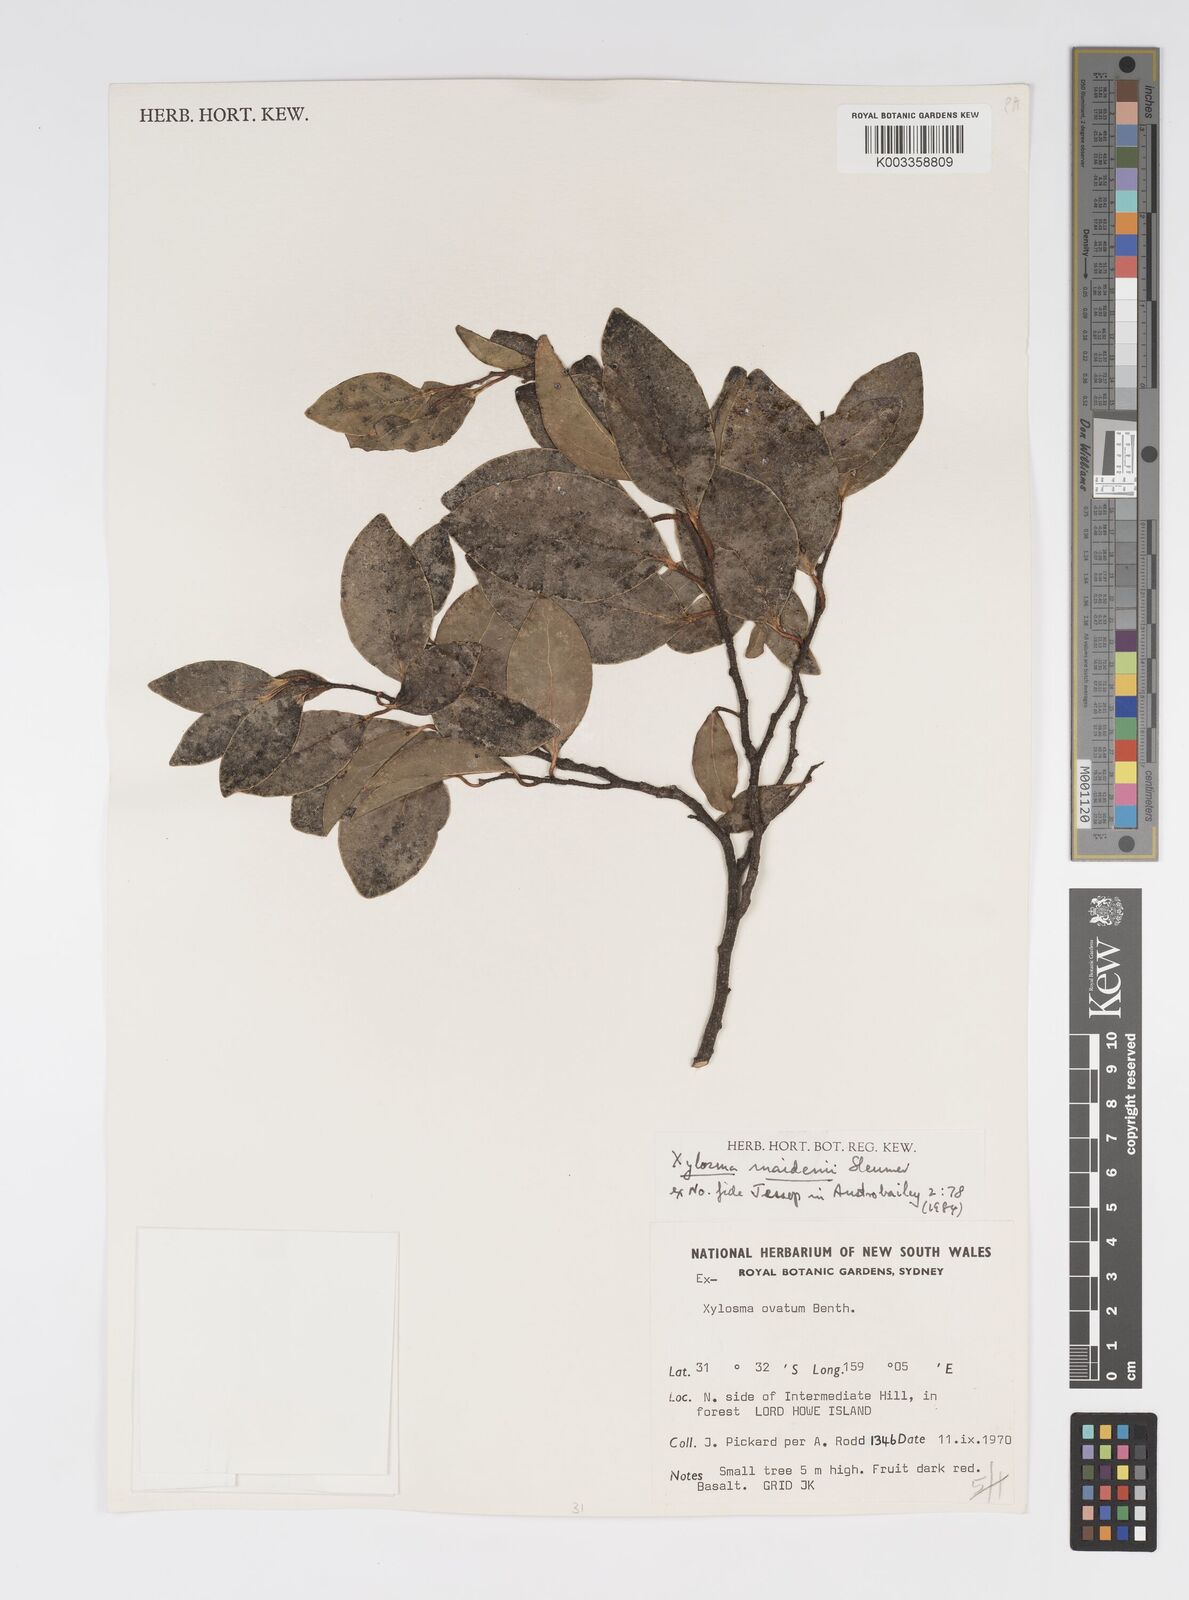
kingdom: Plantae
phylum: Tracheophyta
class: Magnoliopsida
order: Malpighiales
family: Salicaceae
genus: Xylosma
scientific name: Xylosma maidenii
